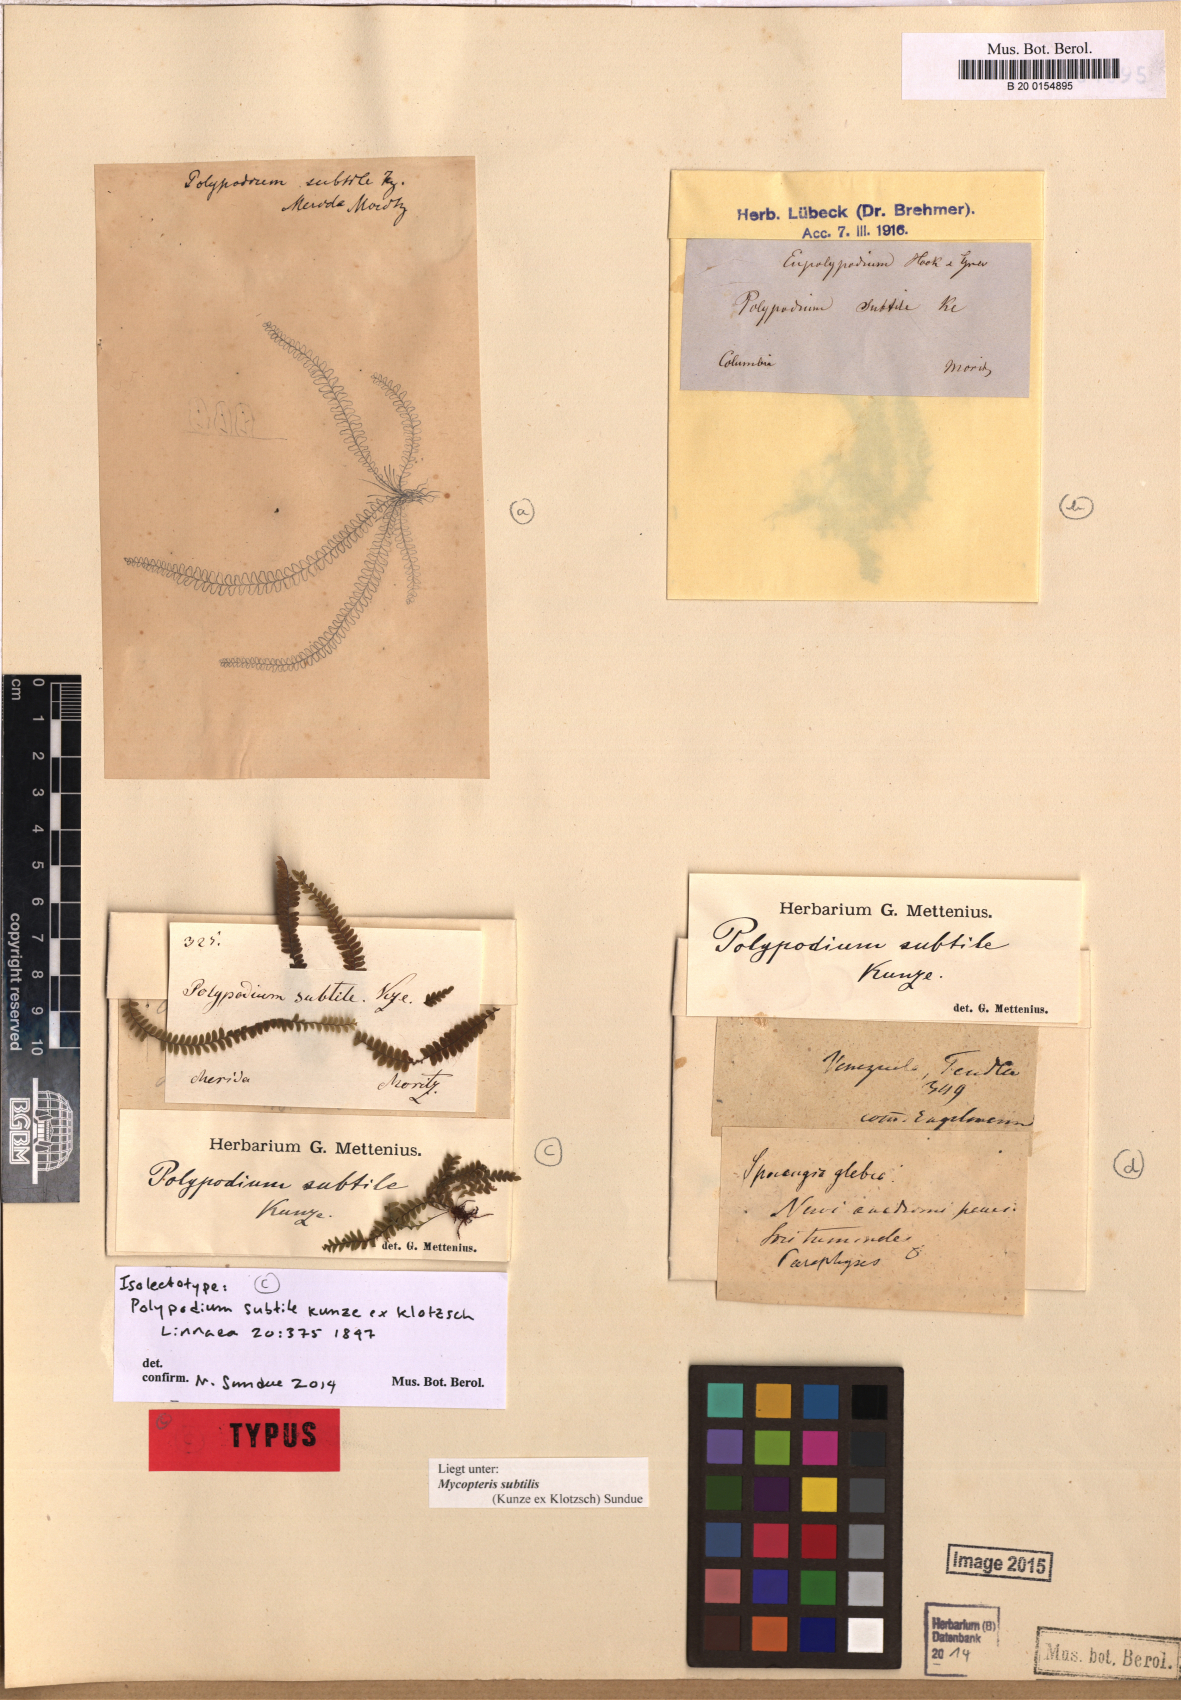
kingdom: Plantae
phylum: Tracheophyta
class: Polypodiopsida
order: Polypodiales
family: Polypodiaceae
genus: Mycopteris
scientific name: Mycopteris subtilis
